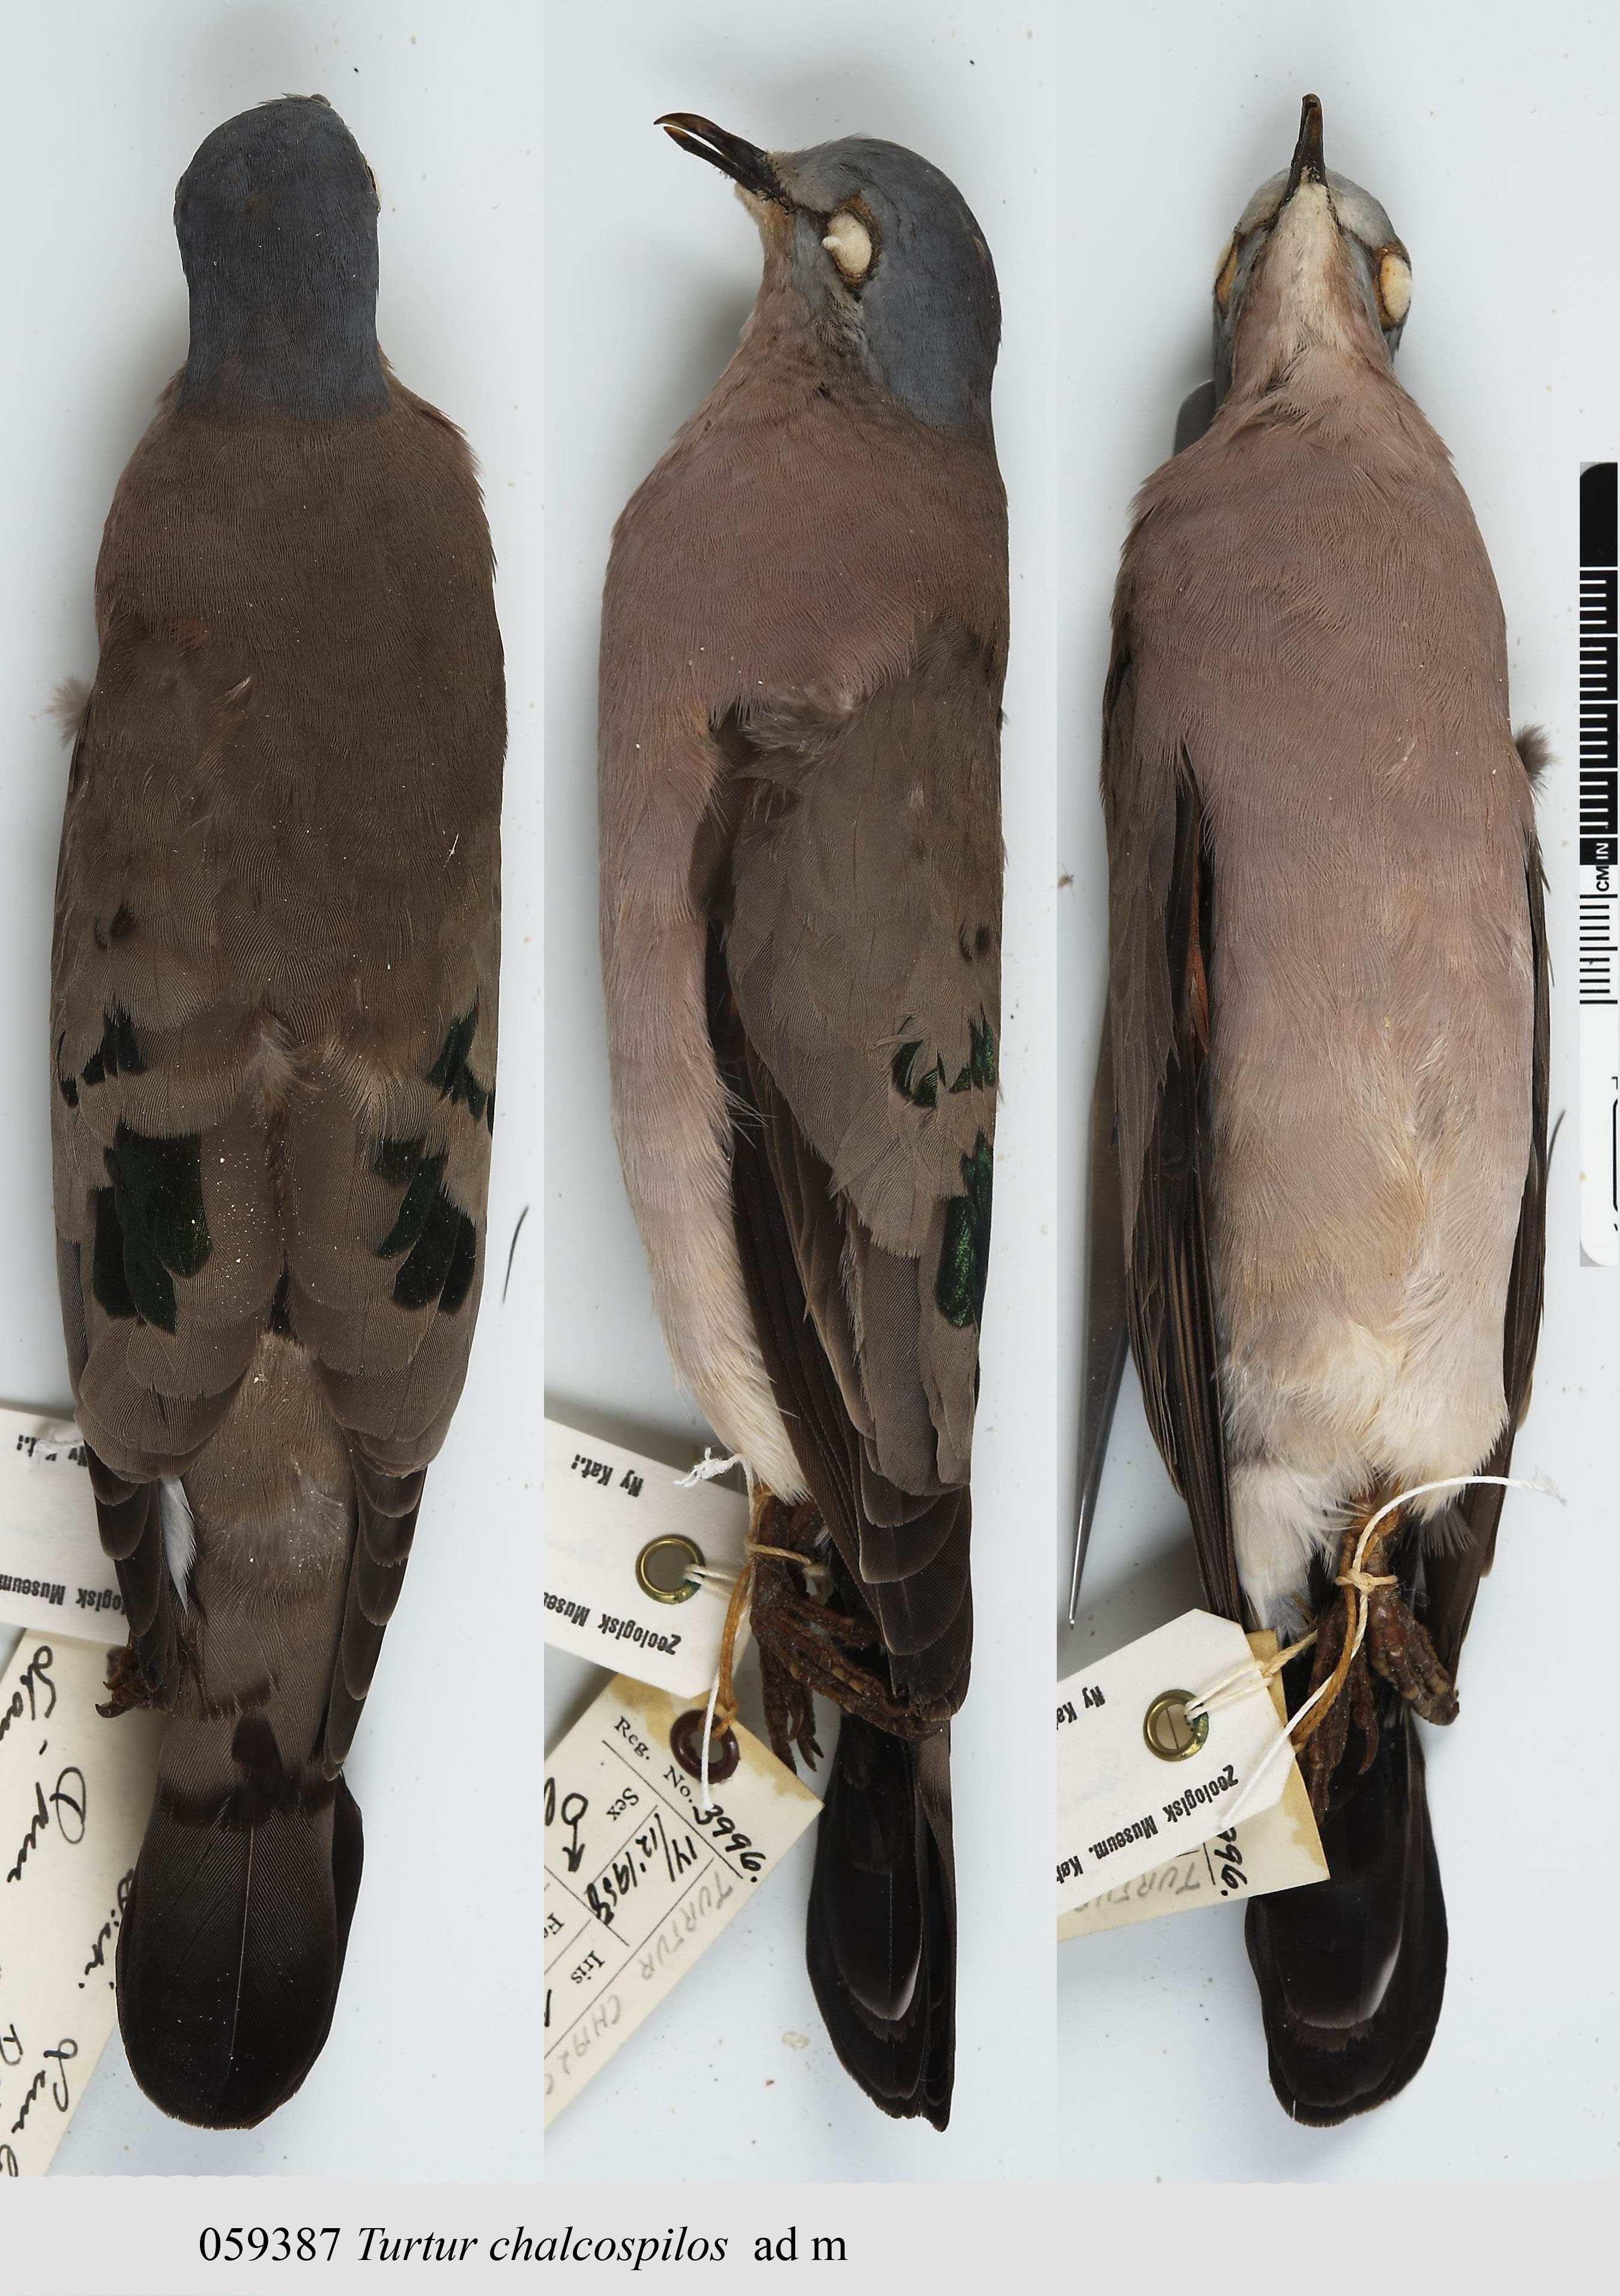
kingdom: Animalia
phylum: Chordata
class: Aves
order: Columbiformes
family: Columbidae
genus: Turtur
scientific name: Turtur chalcospilos
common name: Emerald-spotted wood dove
